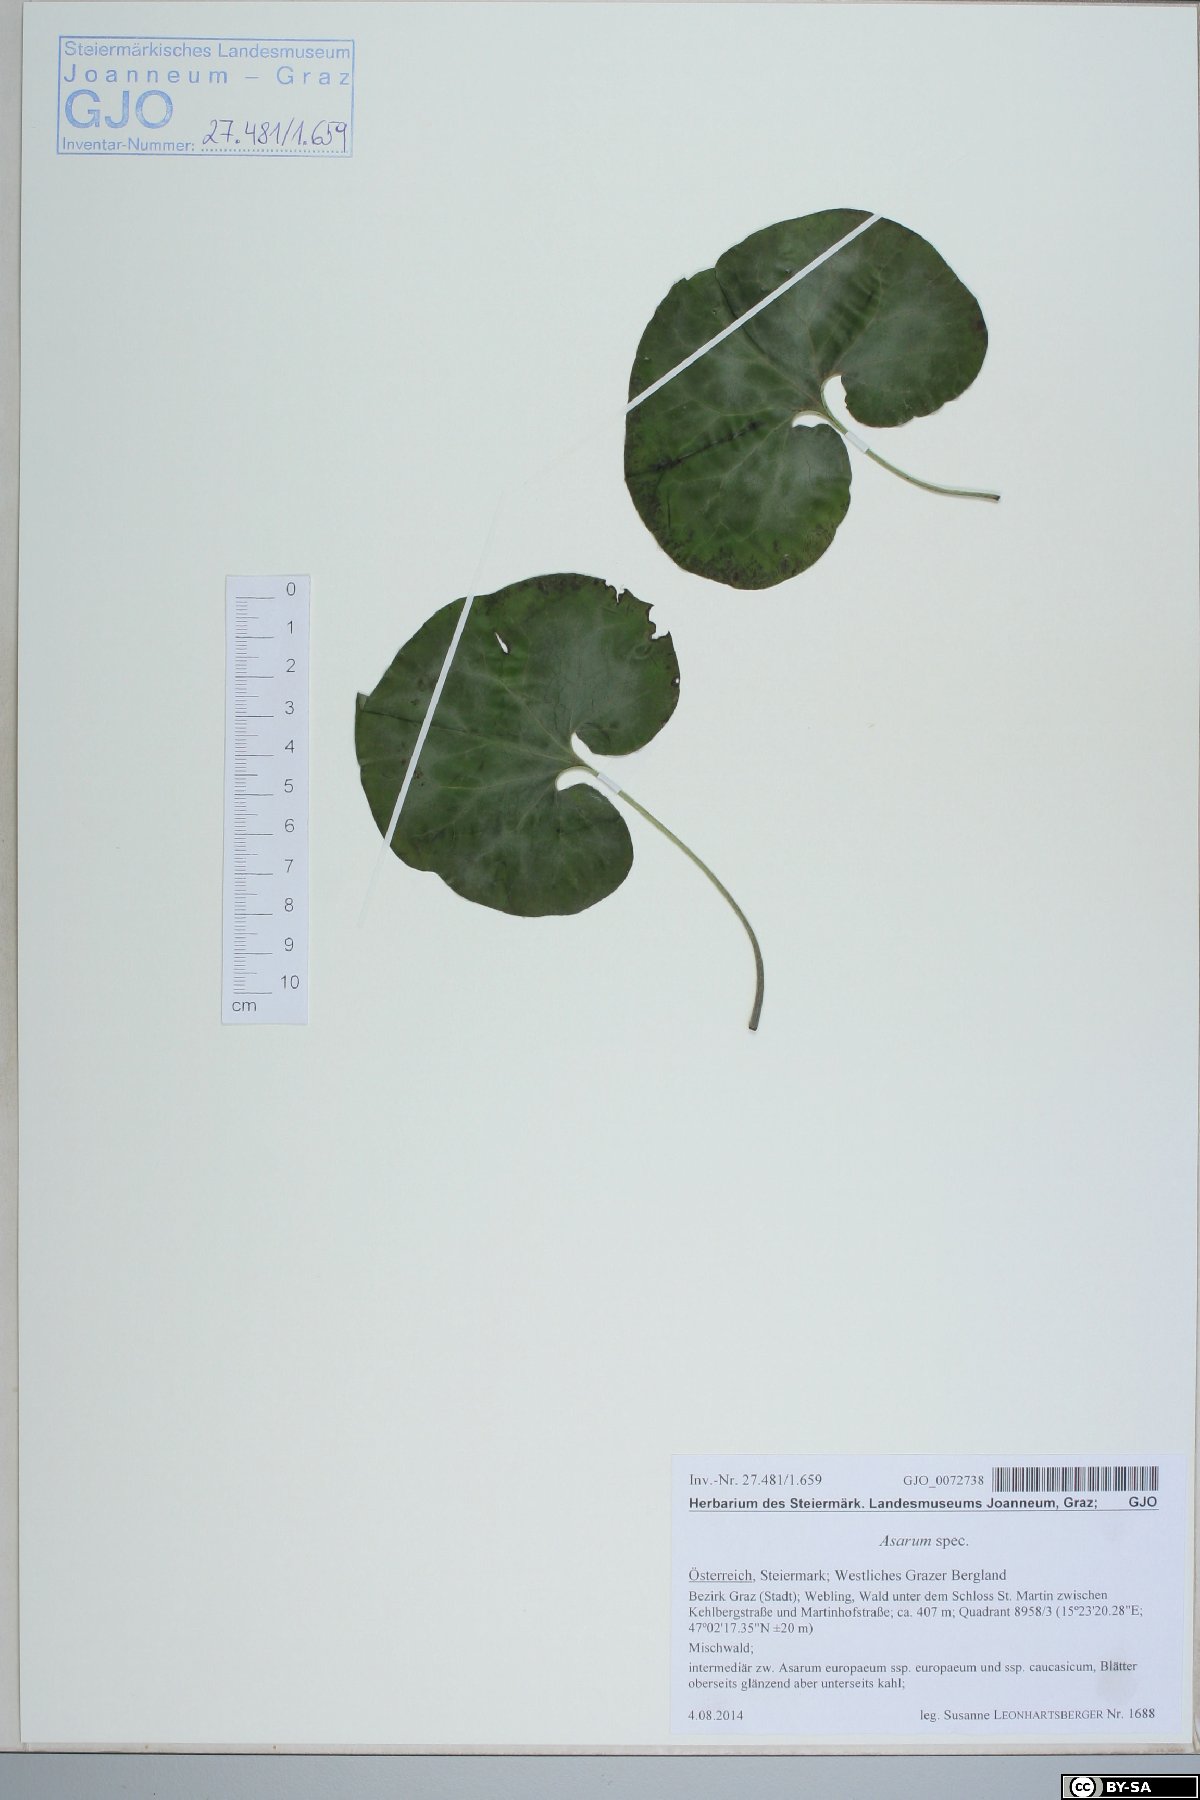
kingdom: Plantae
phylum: Tracheophyta
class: Magnoliopsida
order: Piperales
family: Aristolochiaceae
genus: Asarum
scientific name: Asarum europaeum
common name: Asarabacca
